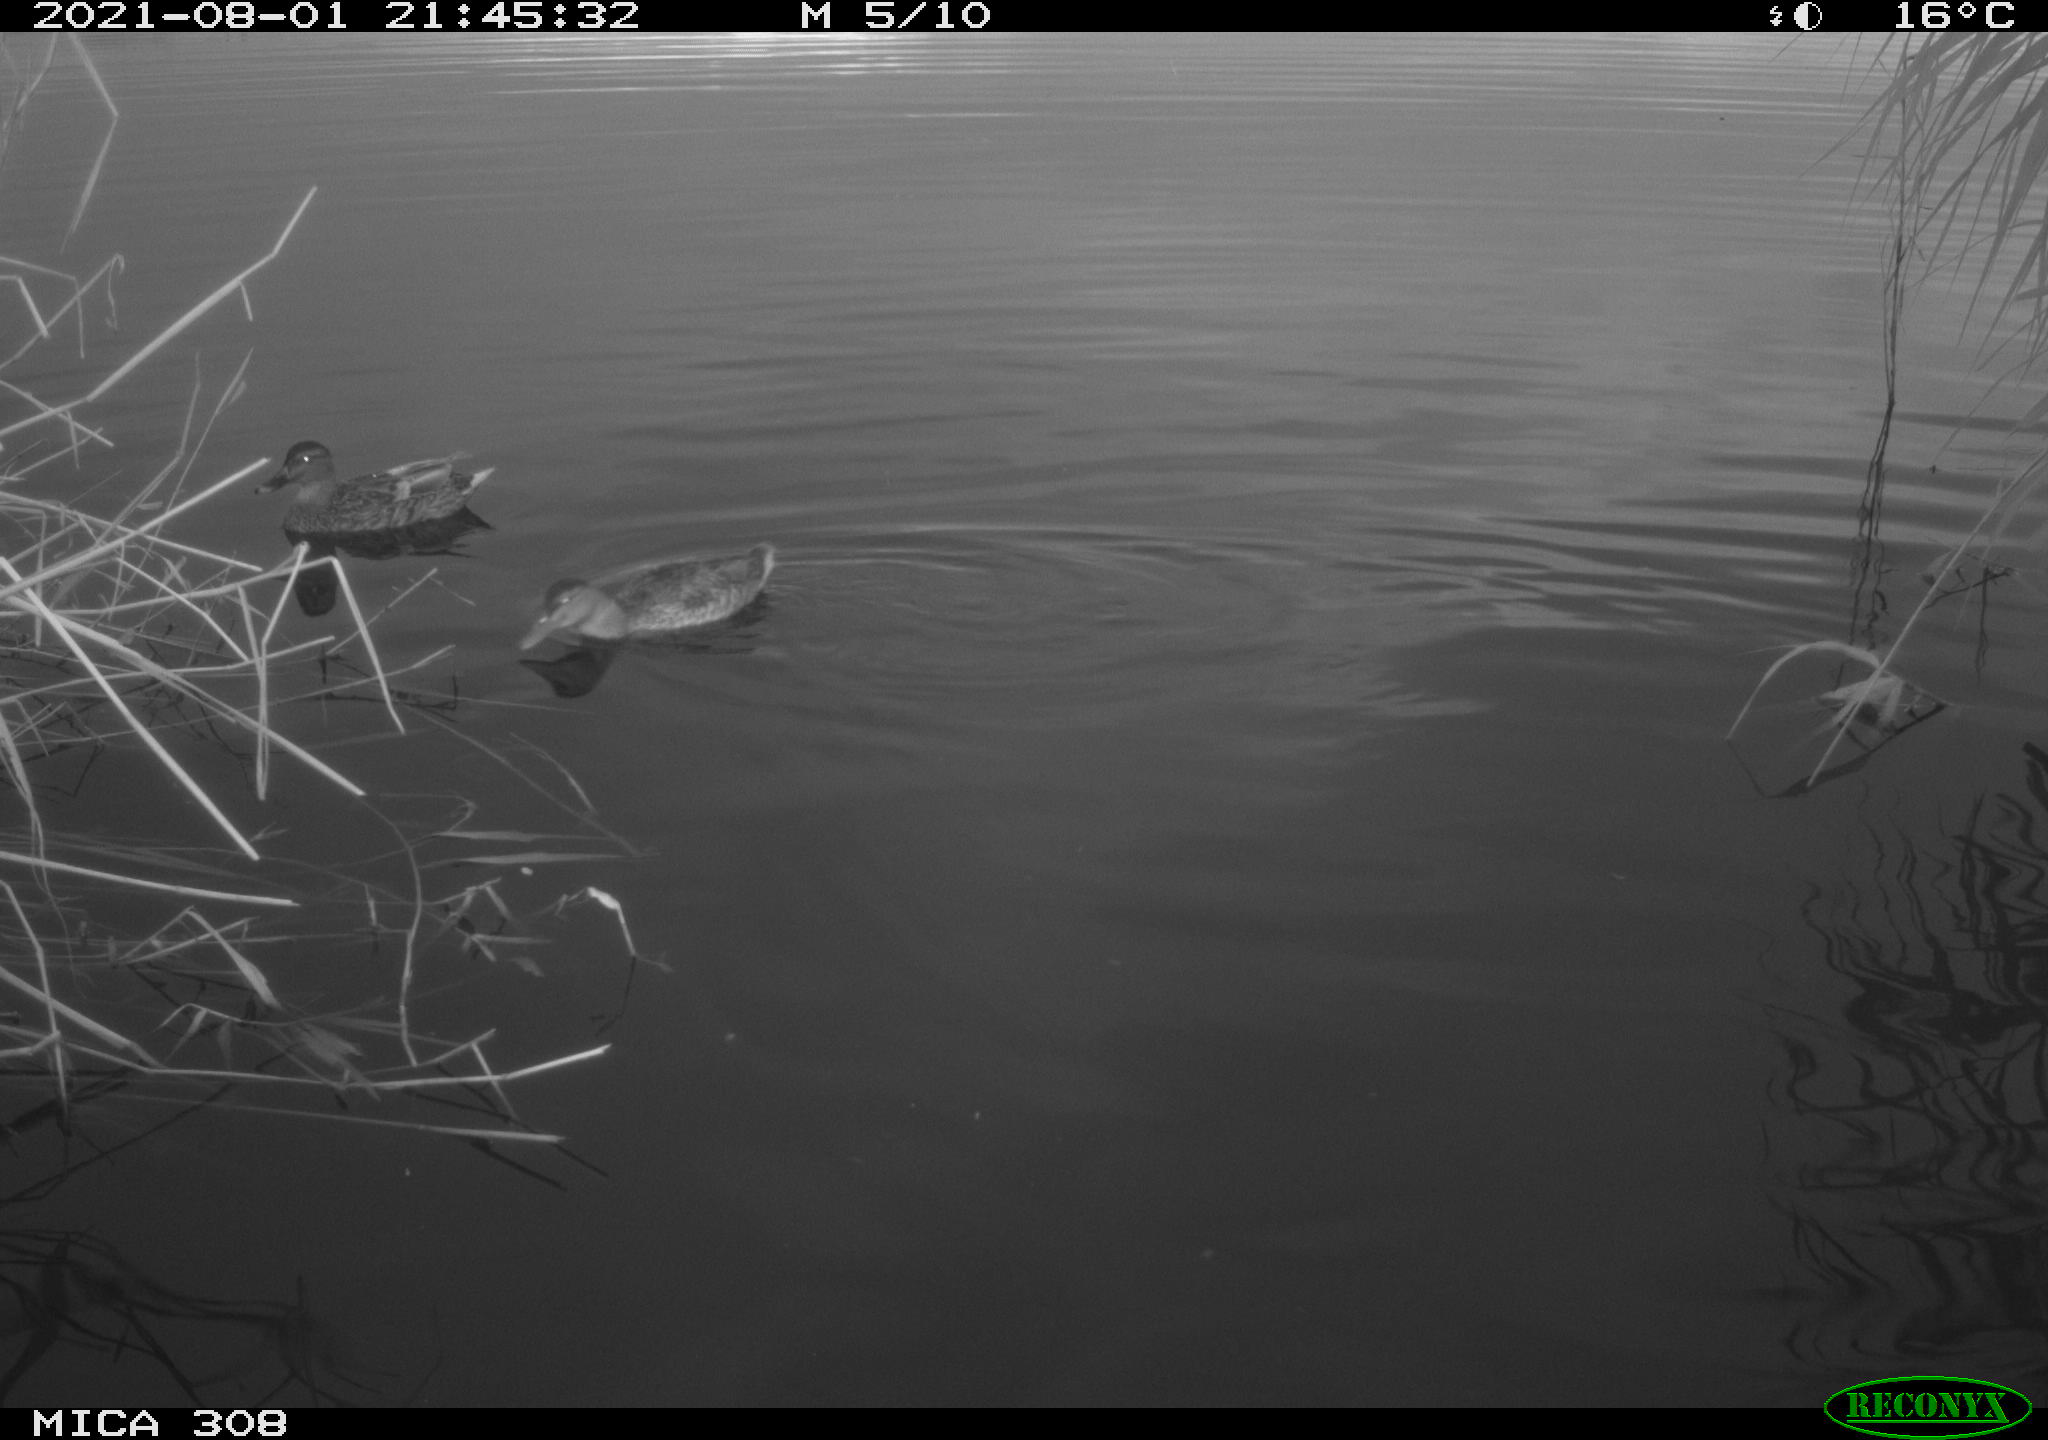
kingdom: Animalia
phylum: Chordata
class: Aves
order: Anseriformes
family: Anatidae
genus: Anas
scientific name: Anas platyrhynchos
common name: Mallard
